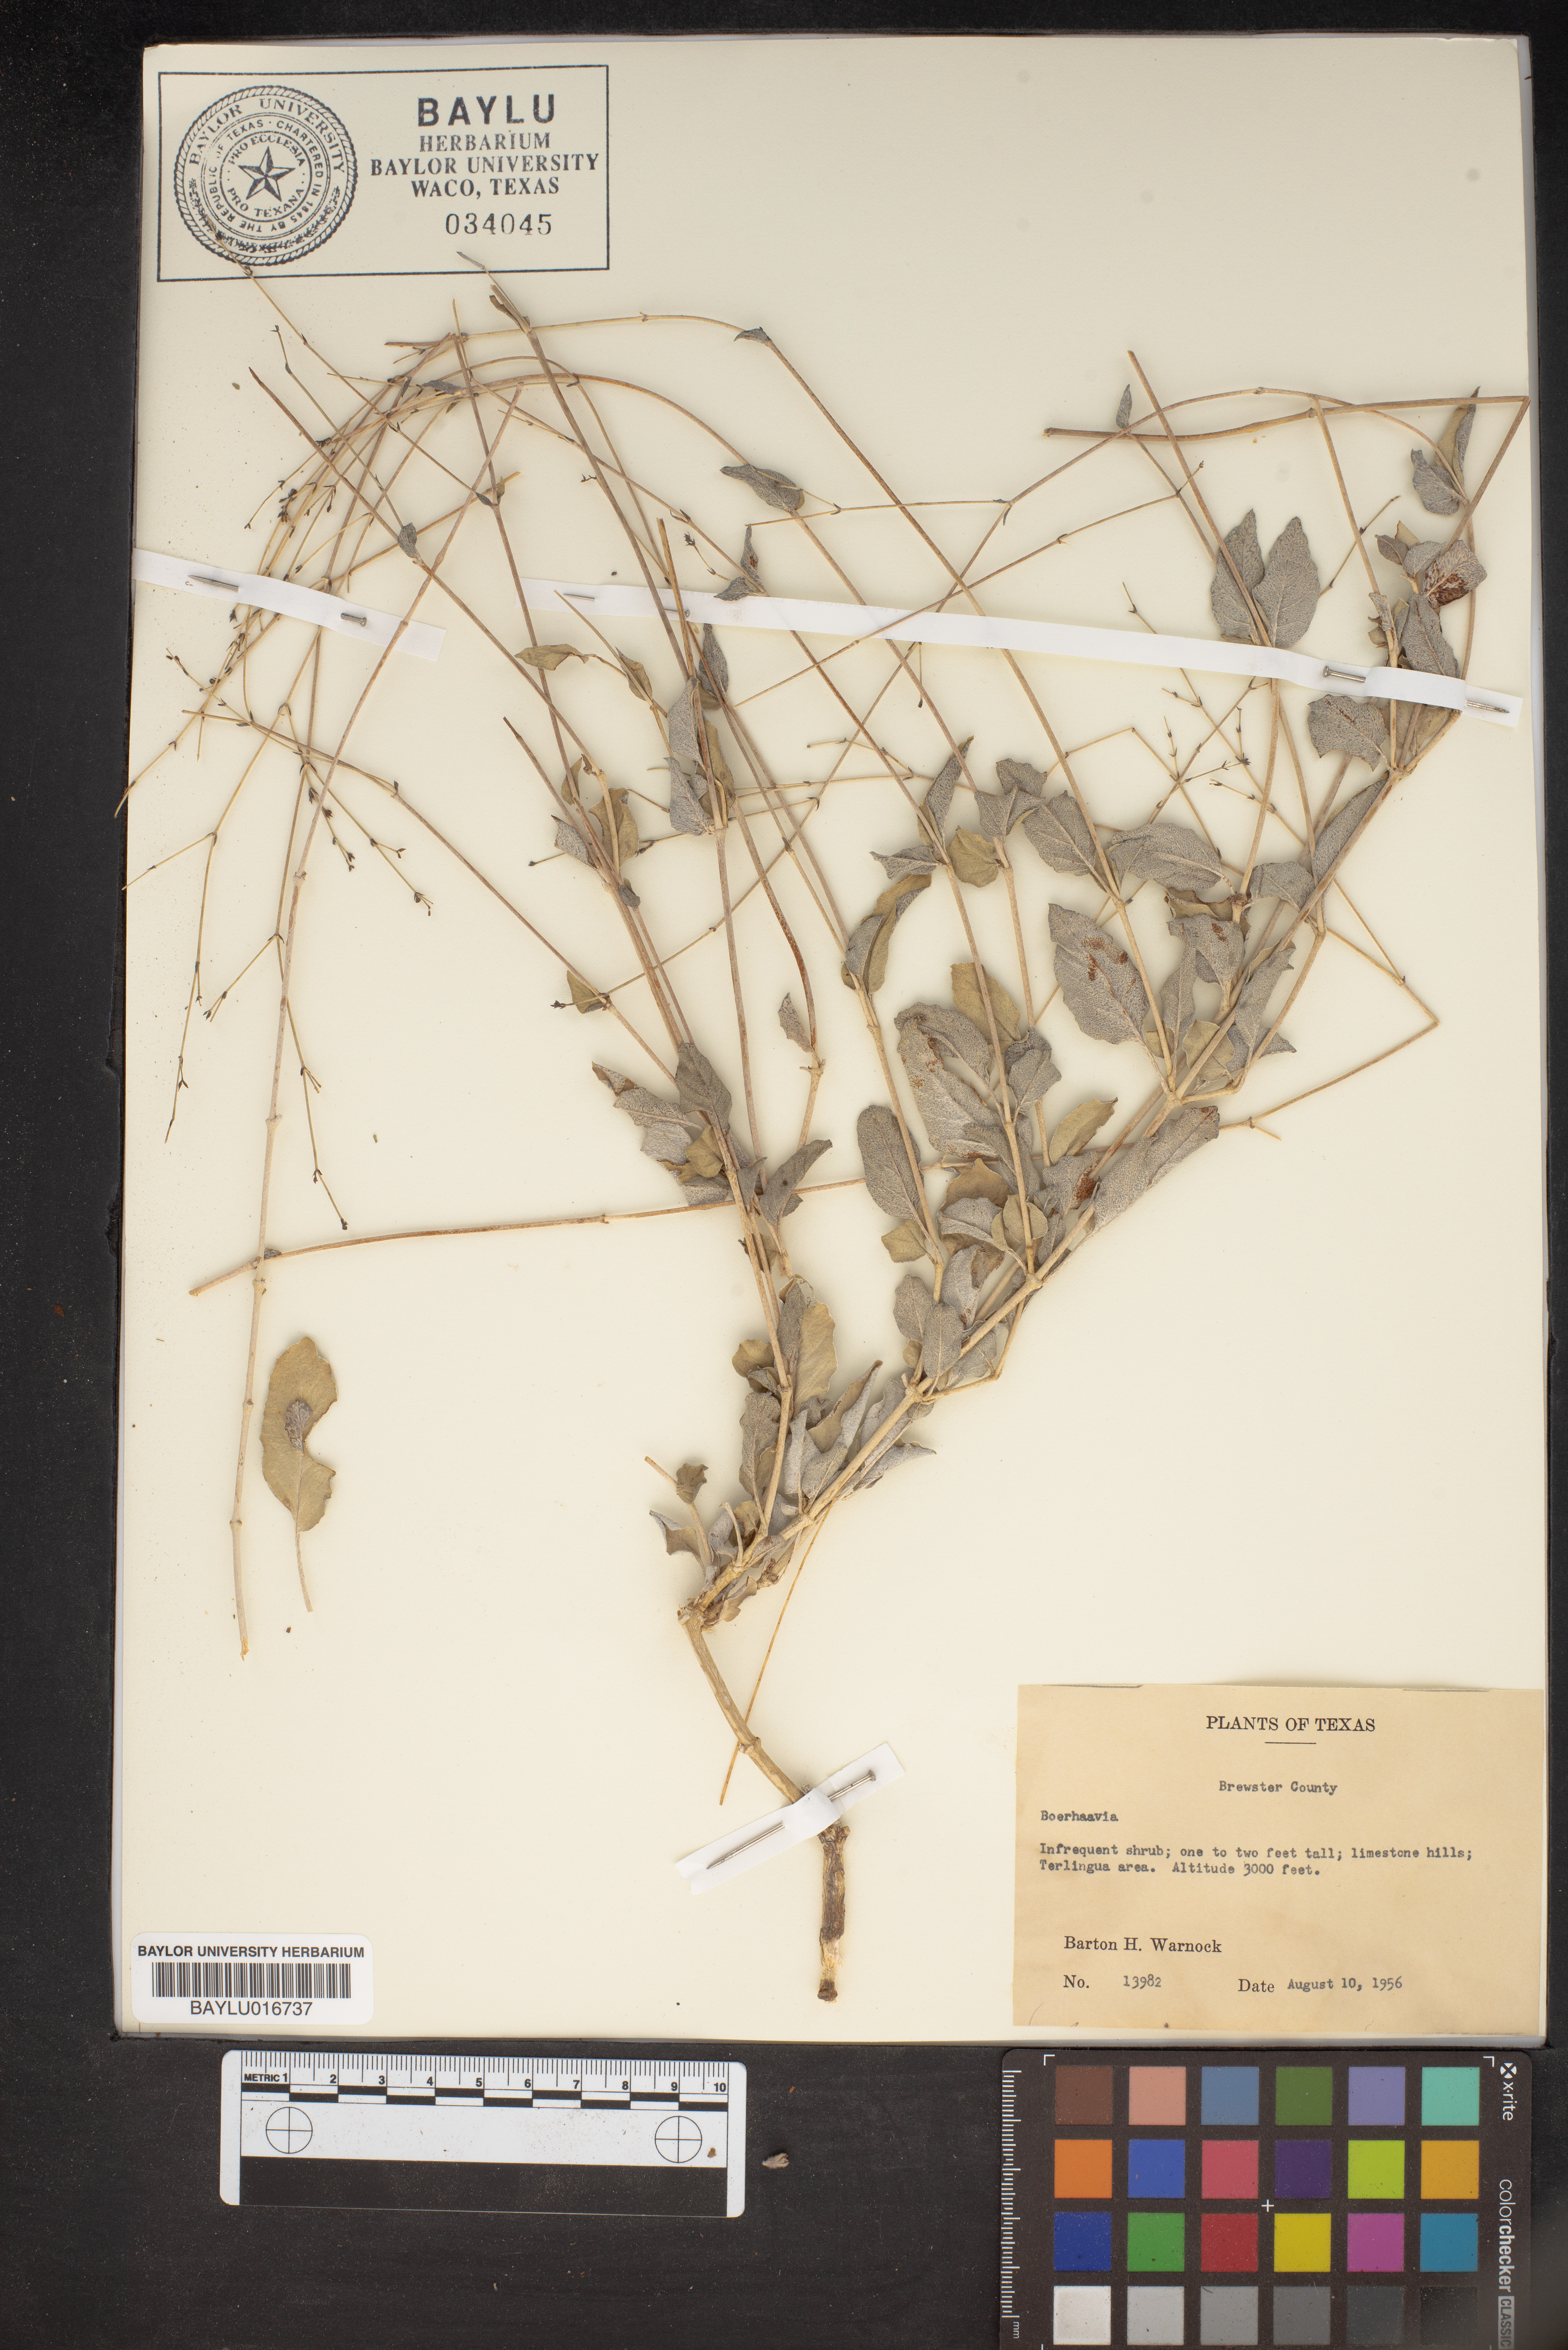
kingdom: Plantae
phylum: Tracheophyta
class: Magnoliopsida
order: Caryophyllales
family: Nyctaginaceae
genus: Boerhavia
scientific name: Boerhavia
